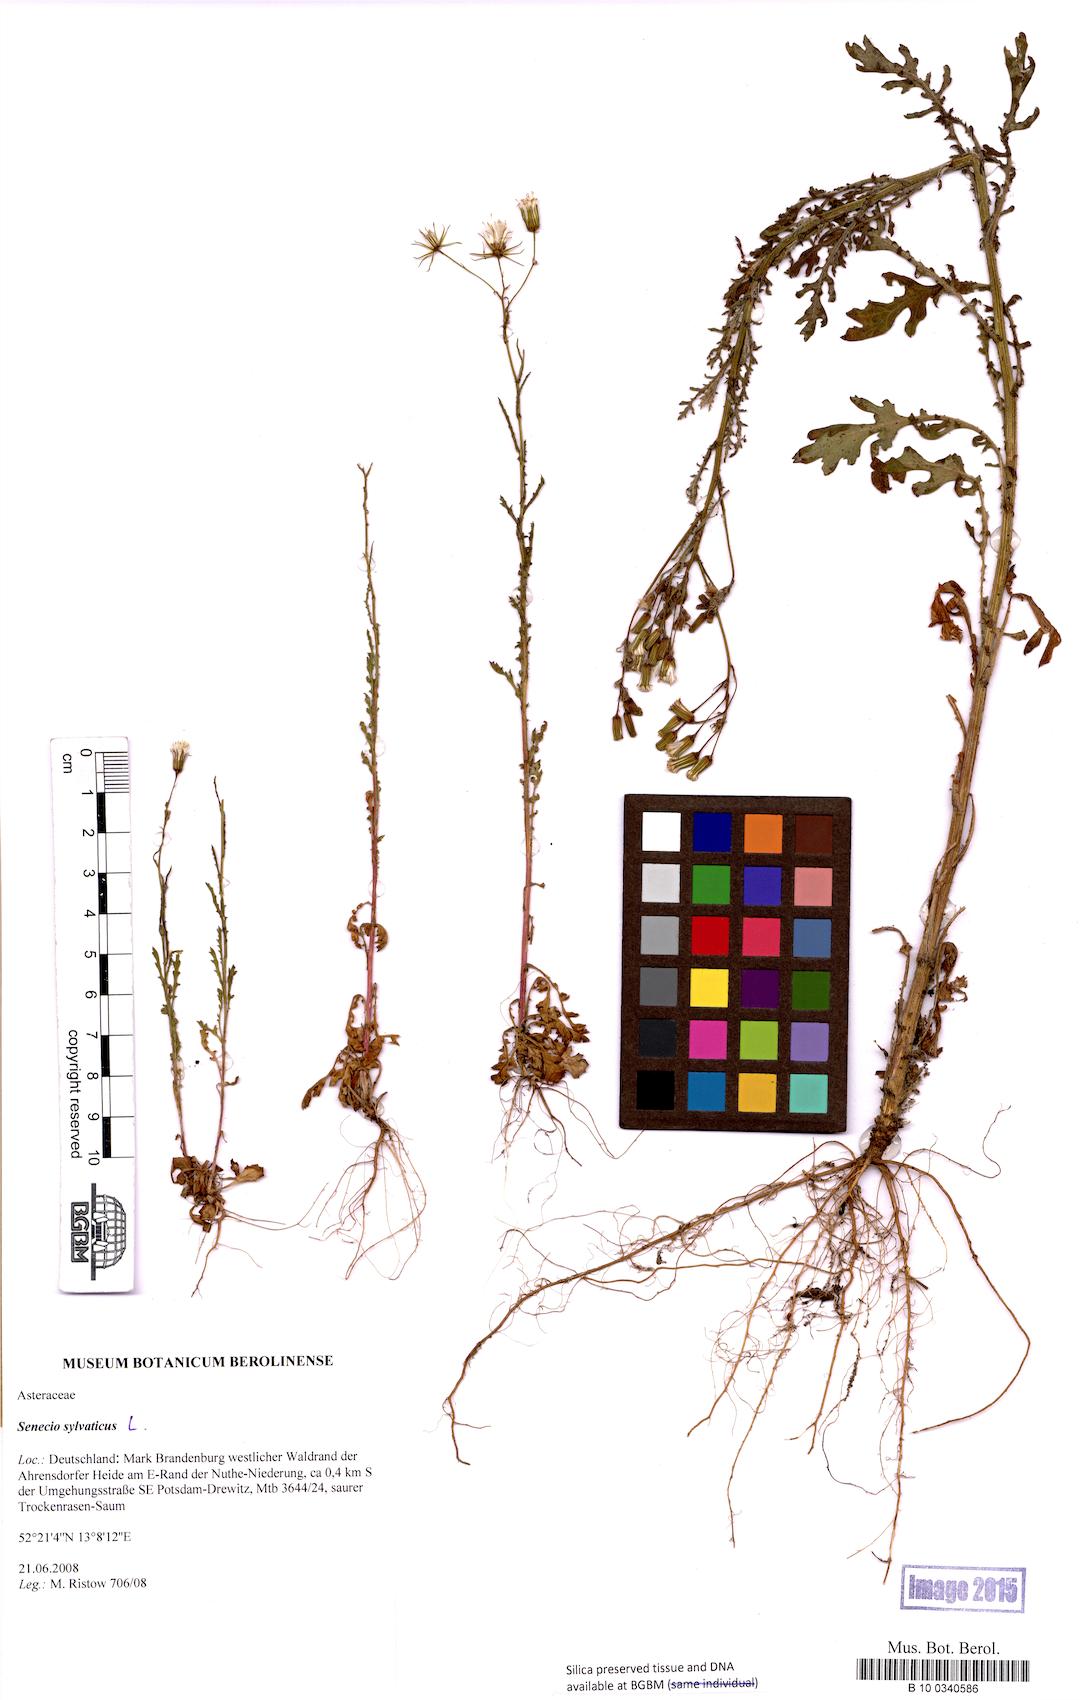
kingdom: Plantae
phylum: Tracheophyta
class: Magnoliopsida
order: Asterales
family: Asteraceae
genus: Senecio
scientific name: Senecio sylvaticus
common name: Woodland ragwort
